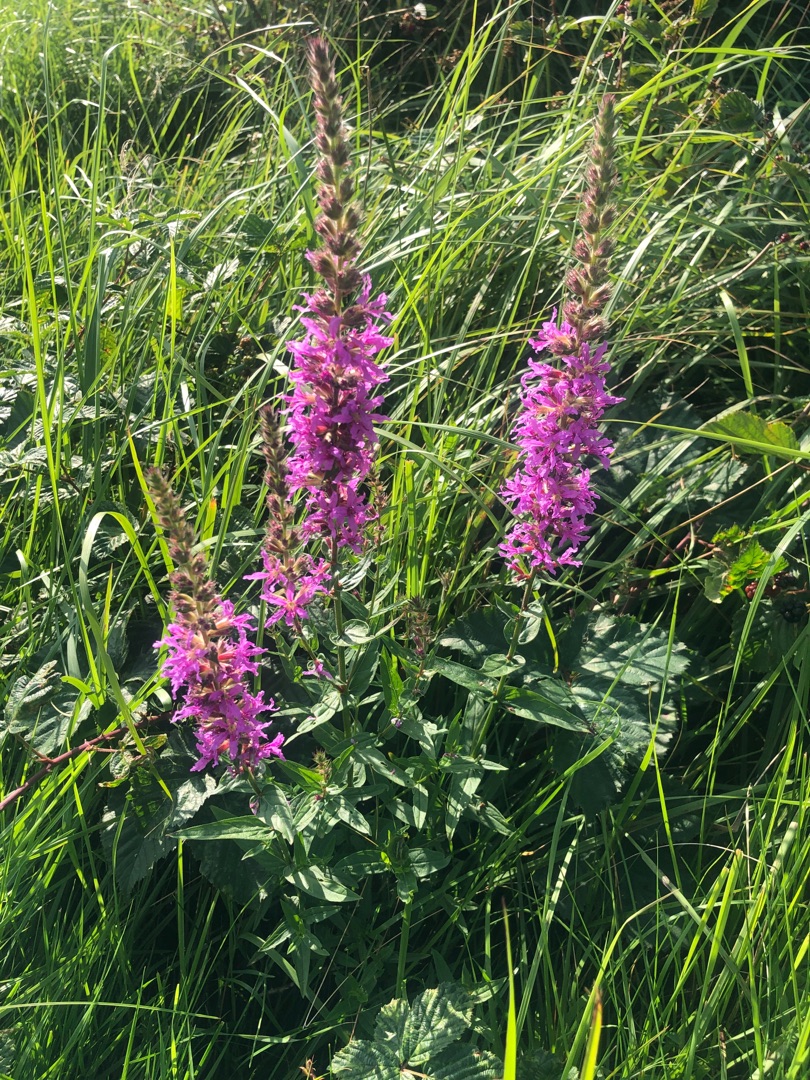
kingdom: Plantae
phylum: Tracheophyta
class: Magnoliopsida
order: Myrtales
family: Lythraceae
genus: Lythrum
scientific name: Lythrum salicaria
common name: Kattehale
